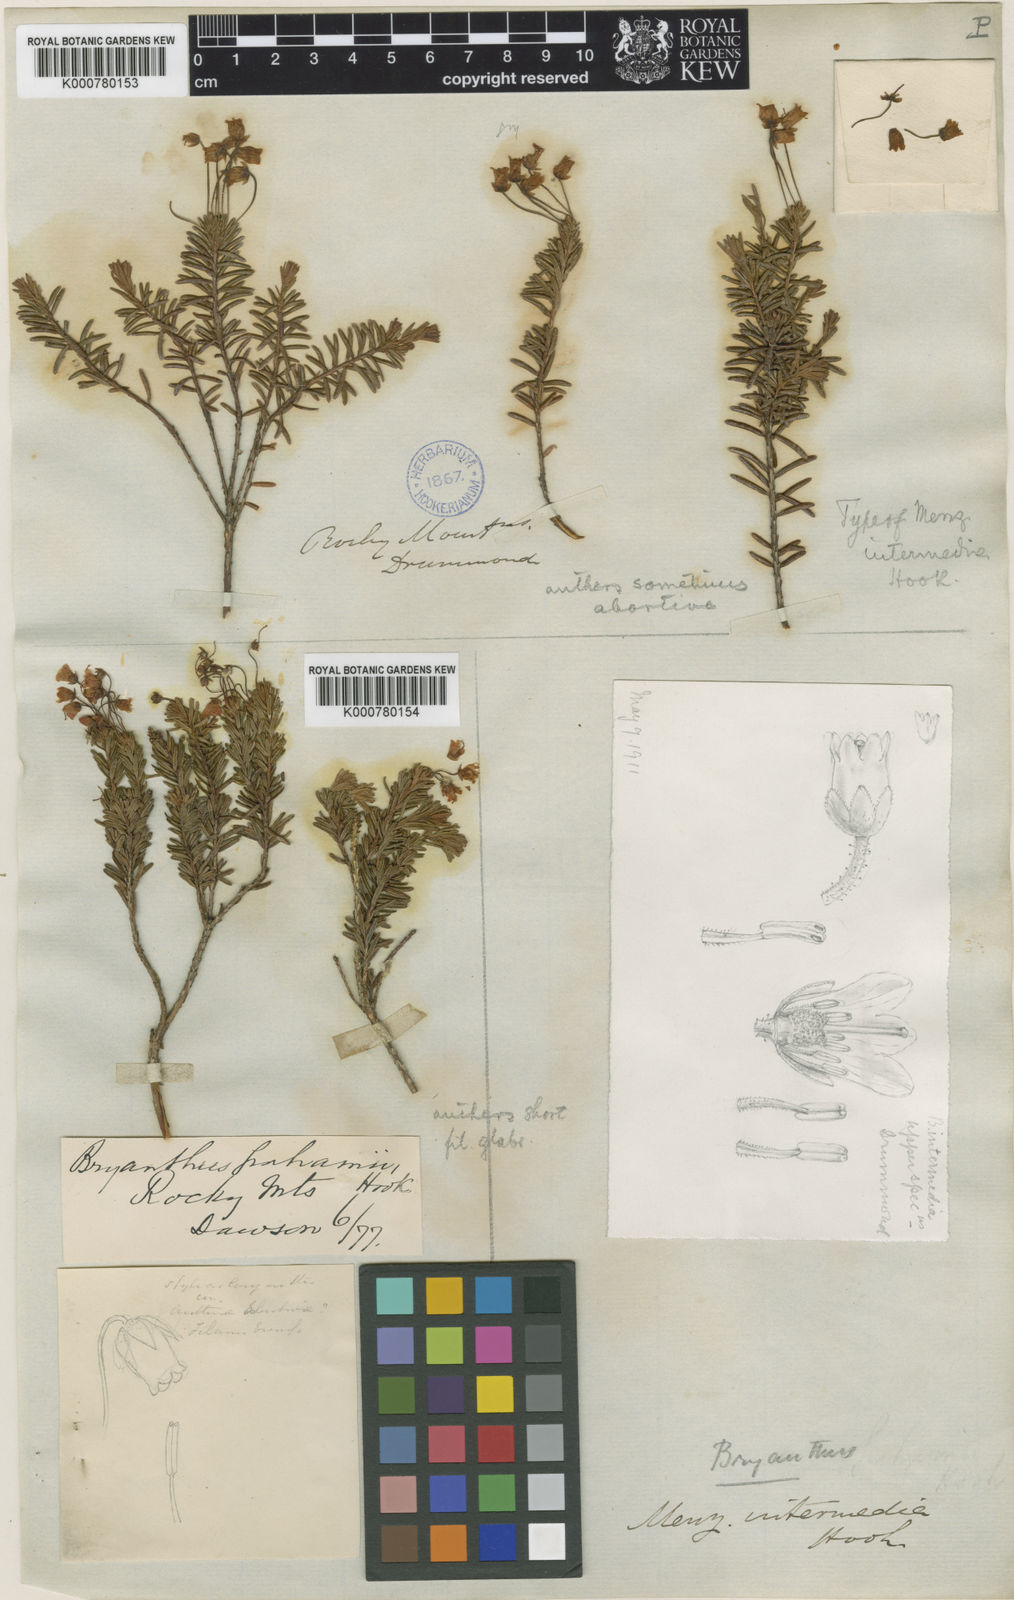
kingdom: Plantae
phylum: Tracheophyta
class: Magnoliopsida
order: Ericales
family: Ericaceae
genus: Phyllodoce
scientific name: Phyllodoce intermedia
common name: Hybrid mountain heather
